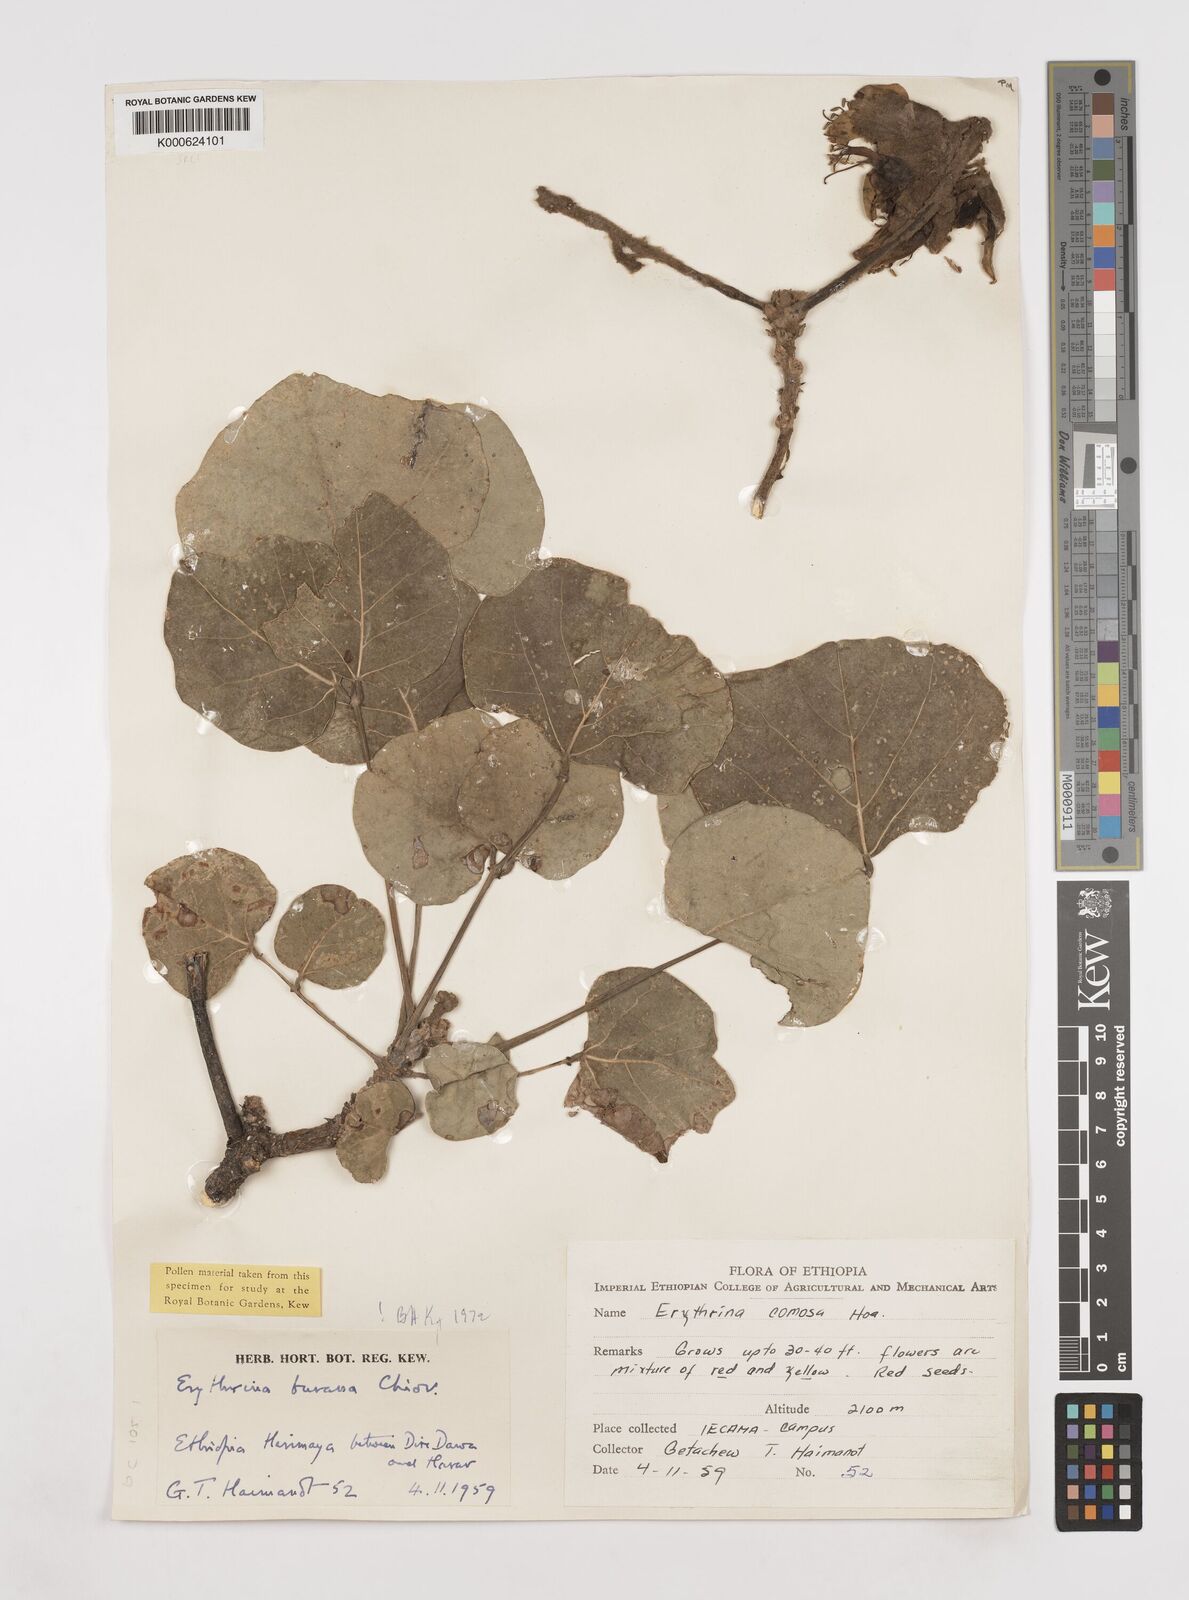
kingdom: Plantae
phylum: Tracheophyta
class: Magnoliopsida
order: Fabales
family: Fabaceae
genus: Erythrina
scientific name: Erythrina burana
